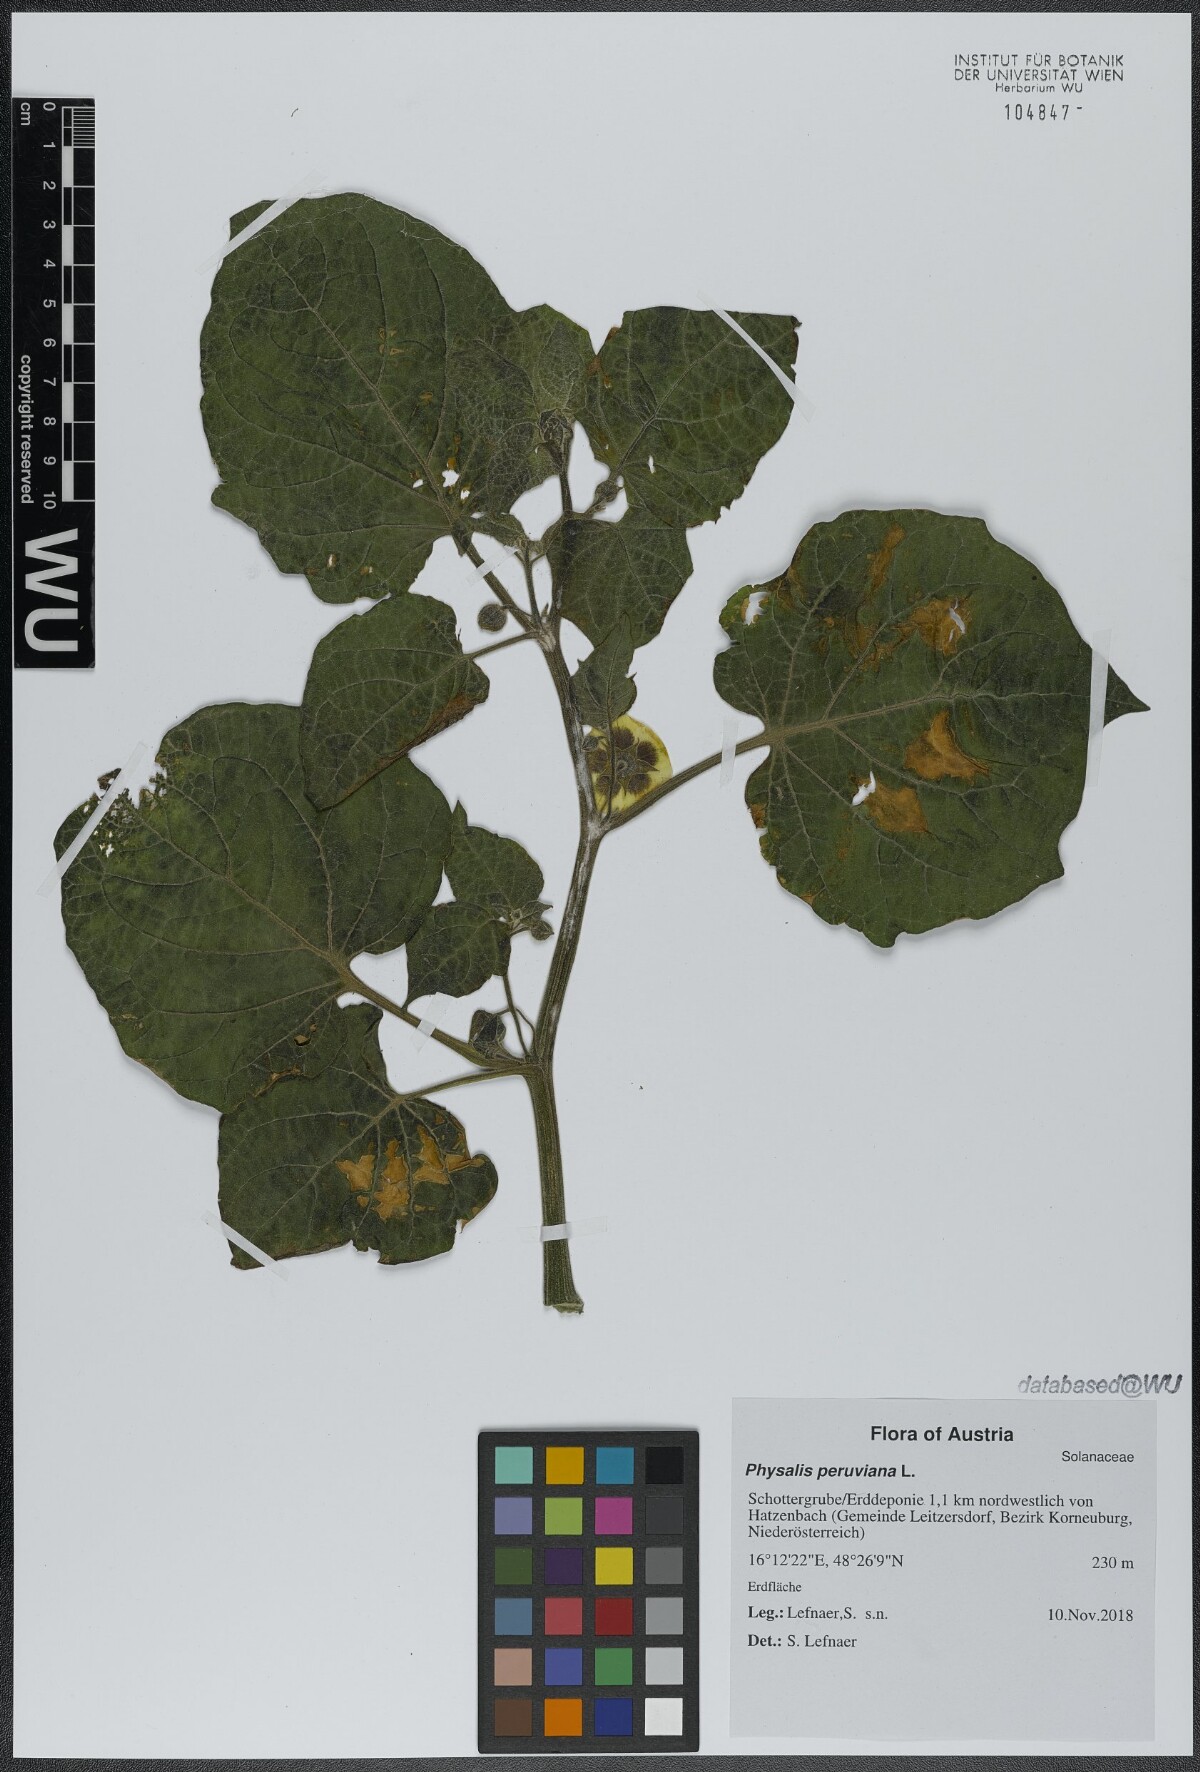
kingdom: Plantae
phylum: Tracheophyta
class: Magnoliopsida
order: Solanales
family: Solanaceae
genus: Physalis
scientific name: Physalis peruviana
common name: Cape-gooseberry
